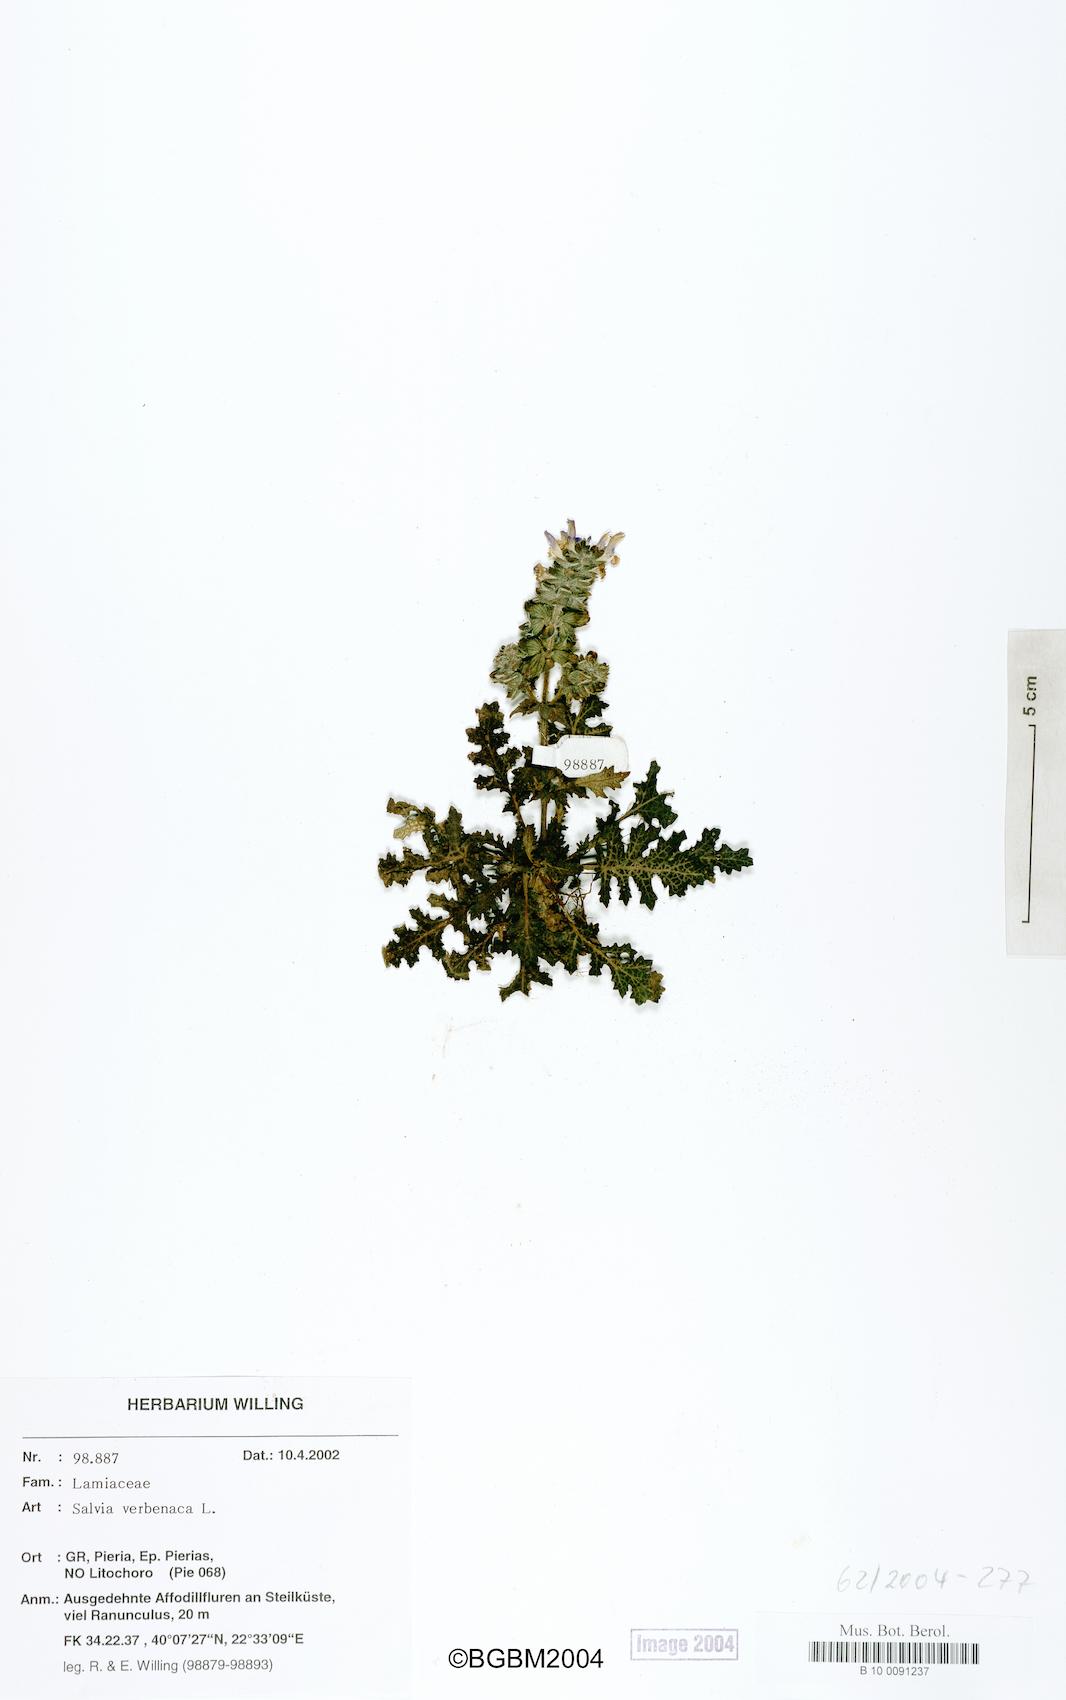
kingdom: Plantae
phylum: Tracheophyta
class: Magnoliopsida
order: Lamiales
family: Lamiaceae
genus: Salvia
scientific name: Salvia verbenaca
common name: Wild clary
